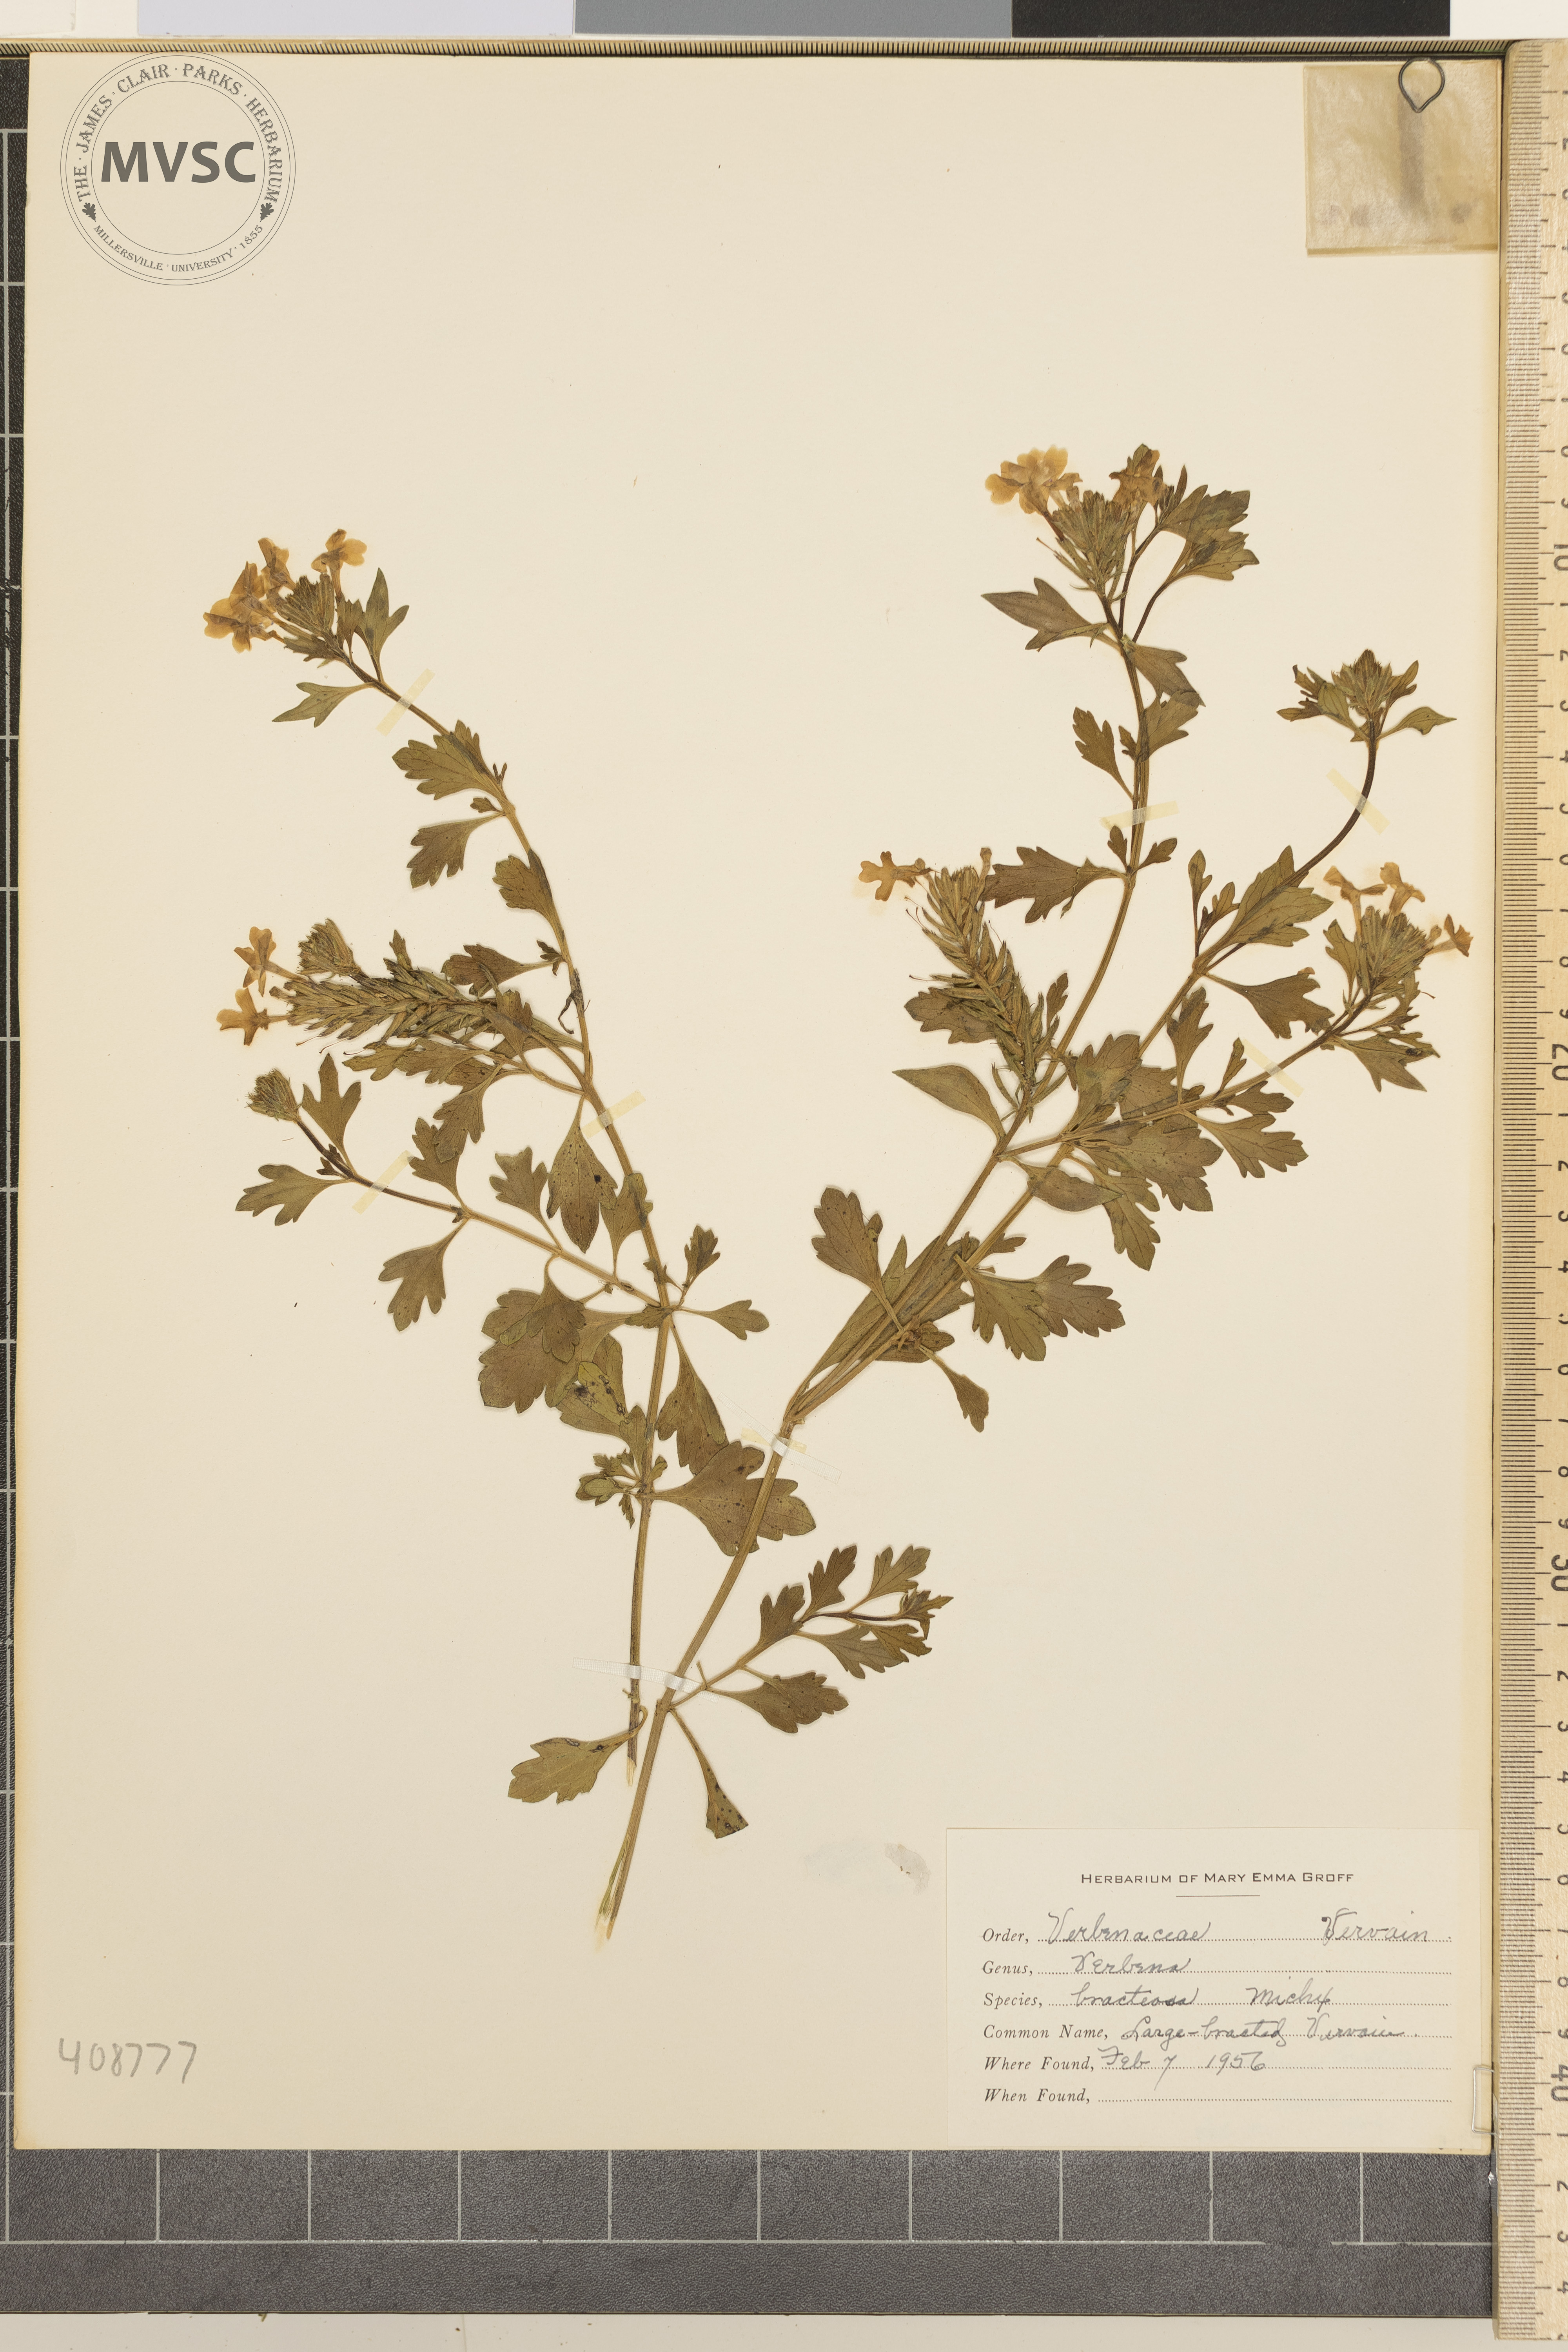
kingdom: Plantae
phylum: Tracheophyta
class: Magnoliopsida
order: Lamiales
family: Verbenaceae
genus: Verbena
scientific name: Verbena bracteata
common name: Large-bracted Vervain
